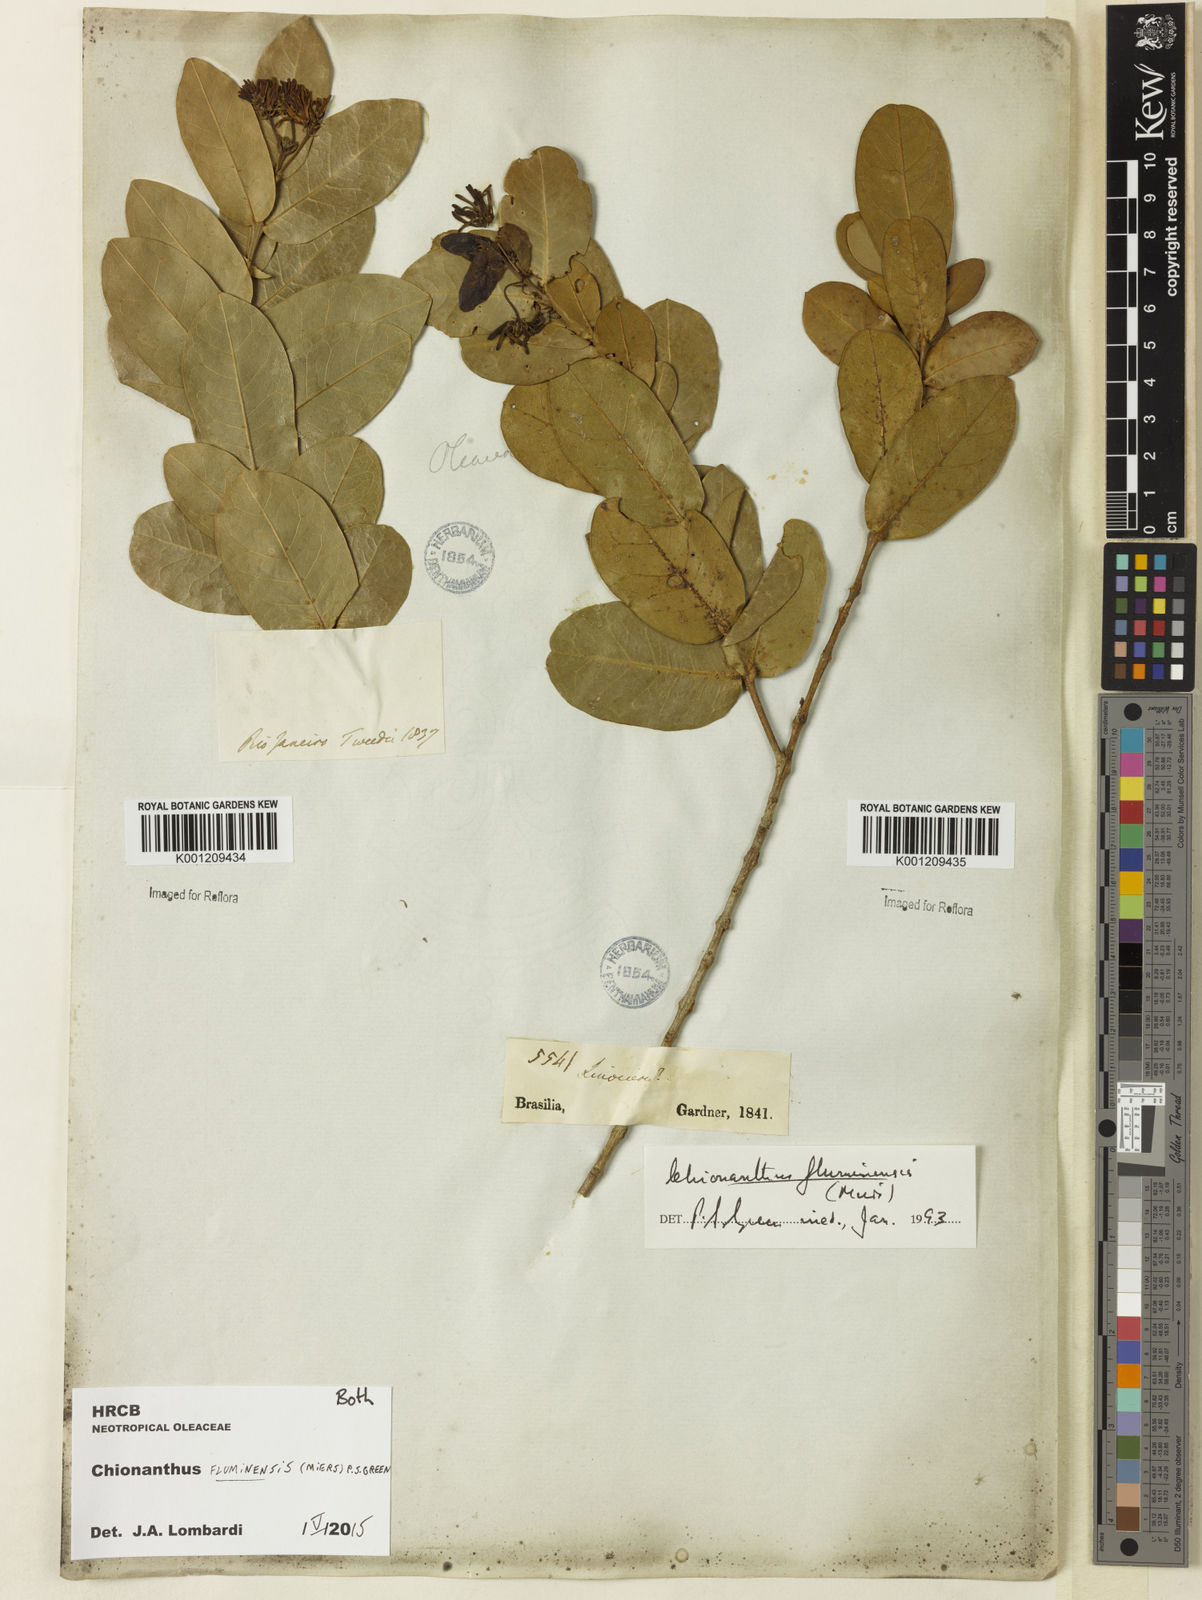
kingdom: Plantae
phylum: Tracheophyta
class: Magnoliopsida
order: Lamiales
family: Oleaceae
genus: Chionanthus
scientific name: Chionanthus fluminensis
